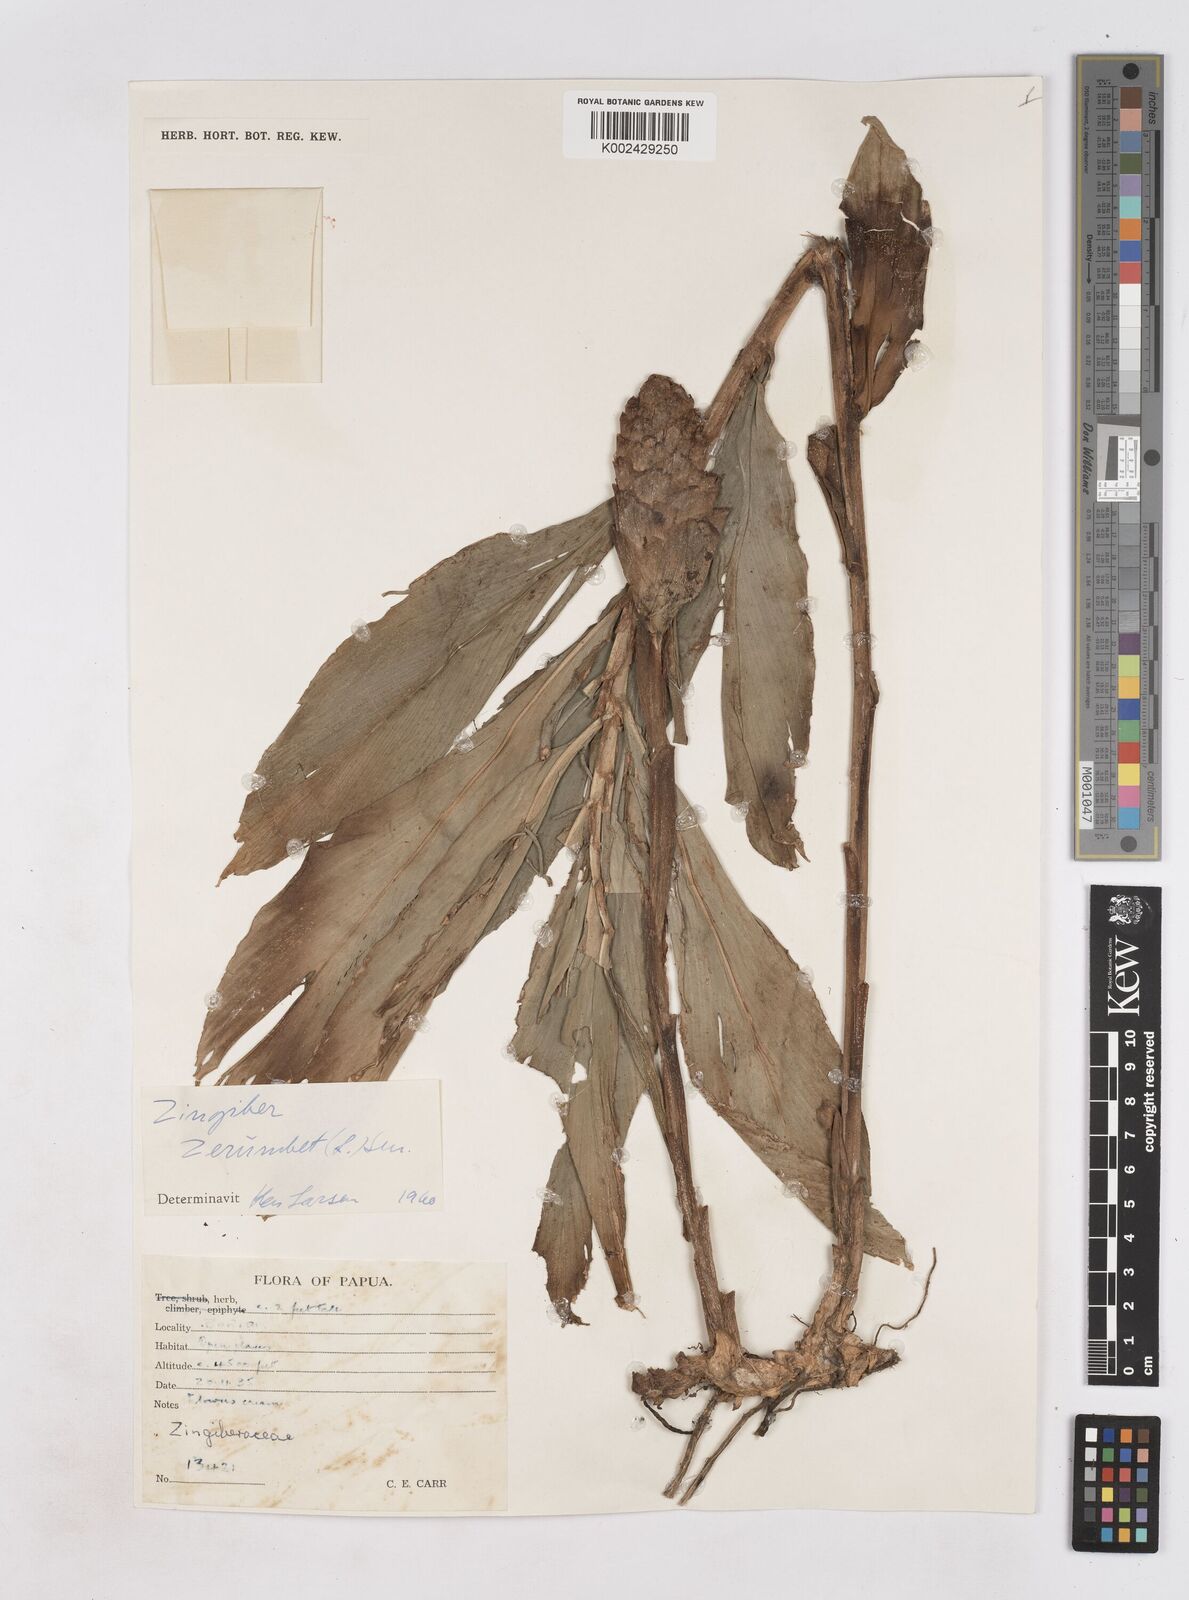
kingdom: Plantae
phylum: Tracheophyta
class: Liliopsida
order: Zingiberales
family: Zingiberaceae
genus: Zingiber
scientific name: Zingiber zerumbet
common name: Bitter ginger
